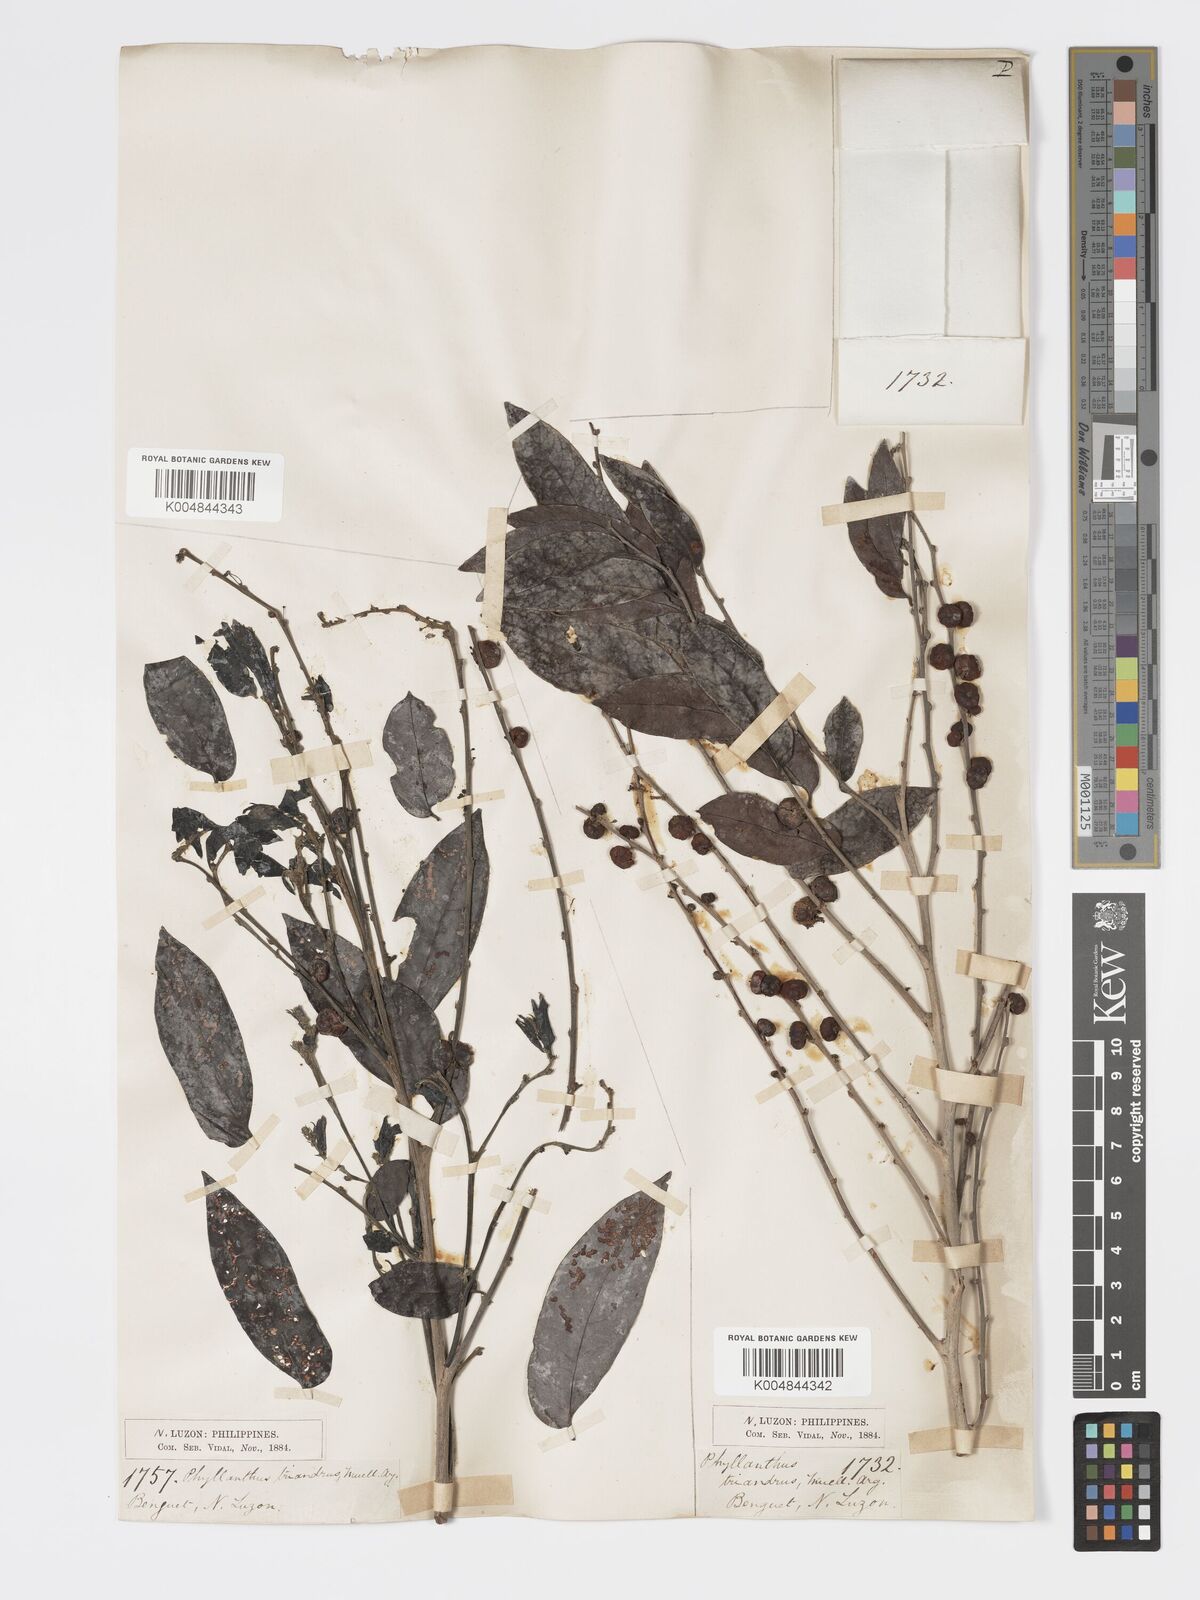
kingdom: Plantae
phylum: Tracheophyta
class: Magnoliopsida
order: Malpighiales
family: Phyllanthaceae
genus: Glochidion
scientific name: Glochidion triandrum
